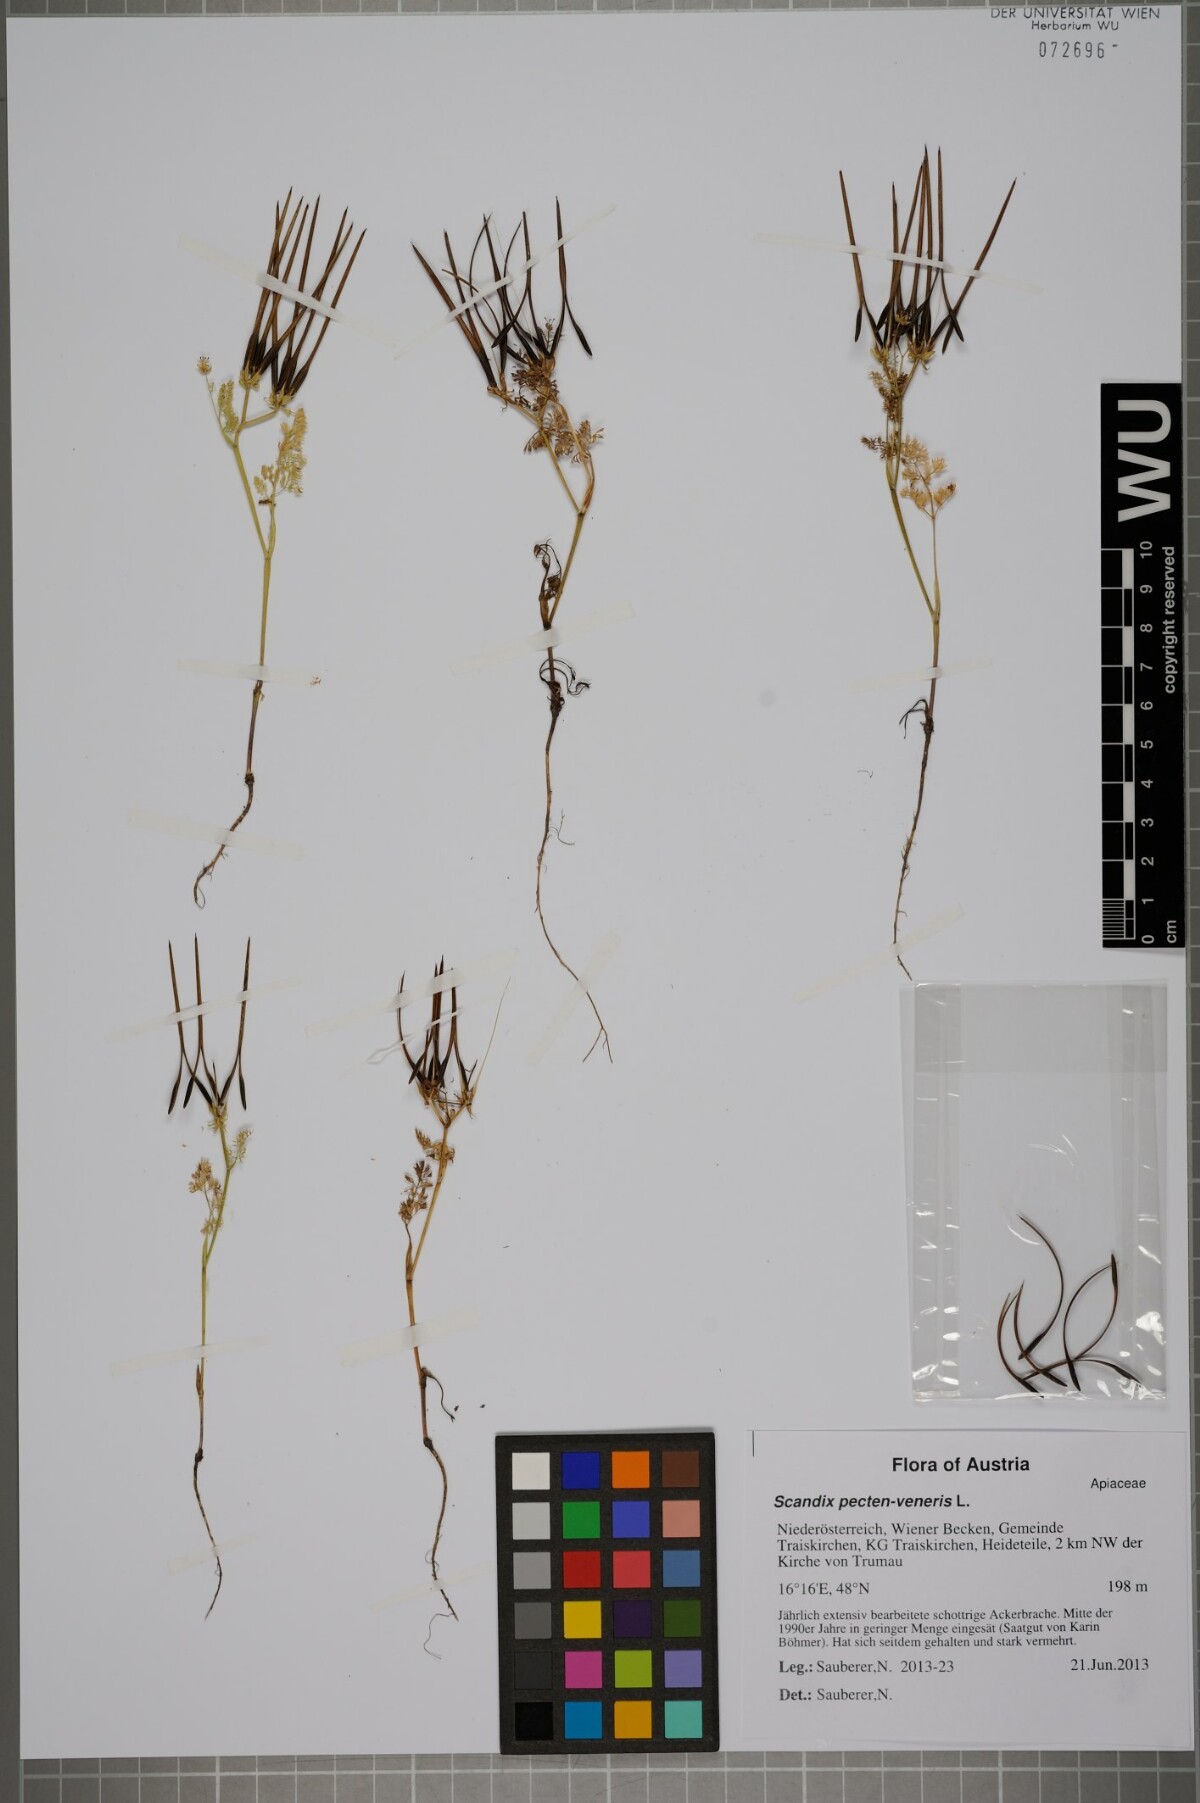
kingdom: Plantae
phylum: Tracheophyta
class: Magnoliopsida
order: Apiales
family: Apiaceae
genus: Scandix
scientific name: Scandix pecten-veneris
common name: Shepherd's-needle
